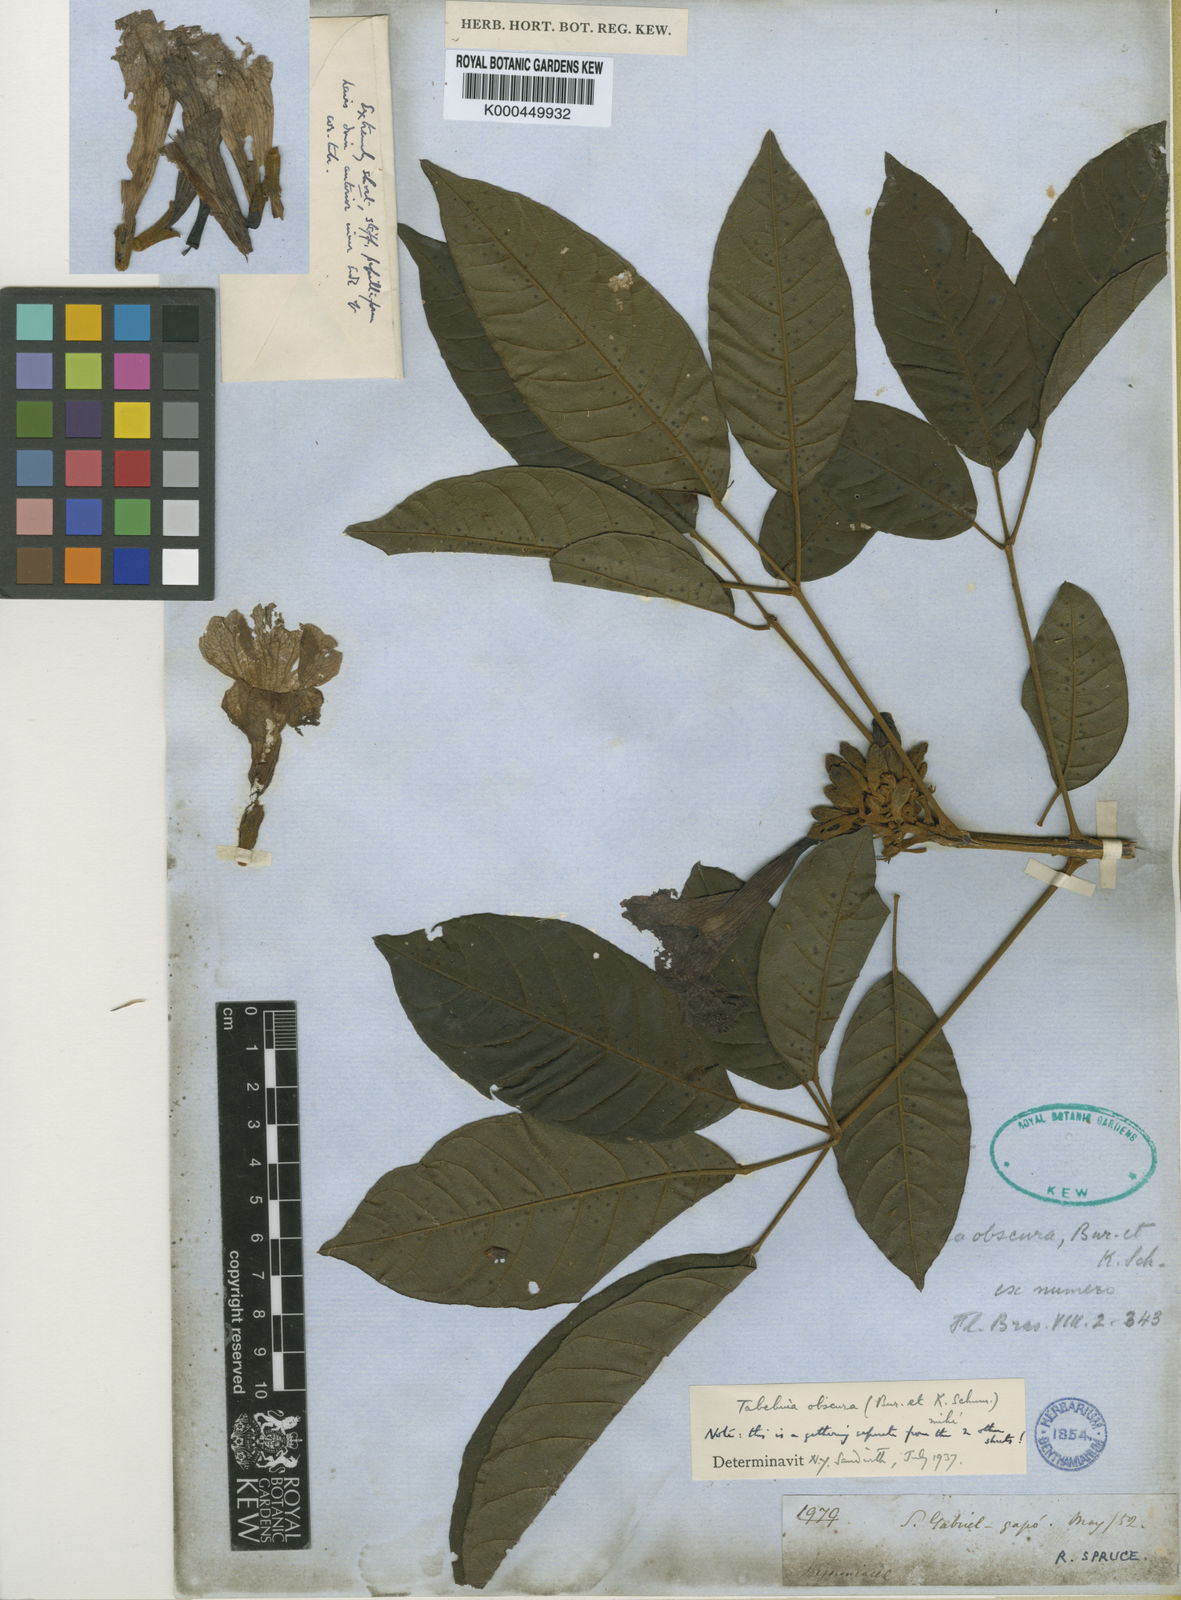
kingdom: Plantae
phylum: Tracheophyta
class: Magnoliopsida
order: Lamiales
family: Bignoniaceae
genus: Handroanthus
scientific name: Handroanthus obscurus
